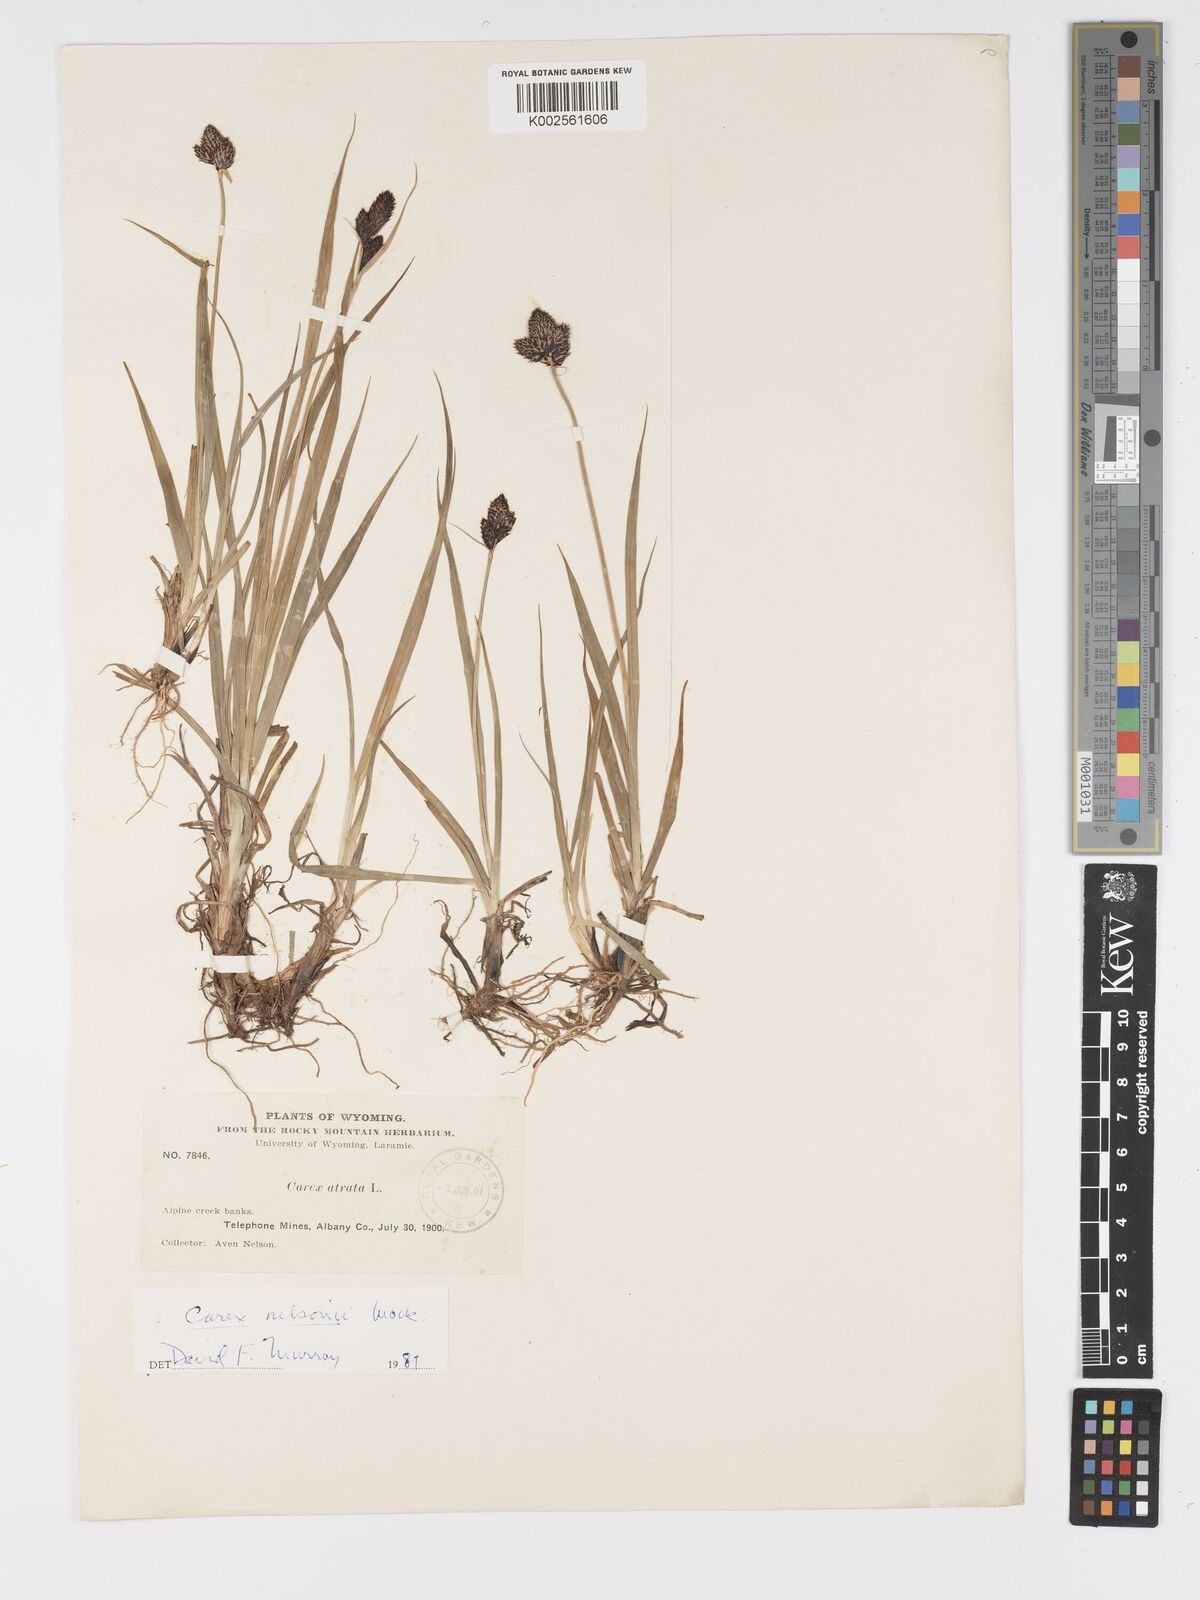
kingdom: Plantae
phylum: Tracheophyta
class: Liliopsida
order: Poales
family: Cyperaceae
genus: Carex
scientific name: Carex nelsonii
